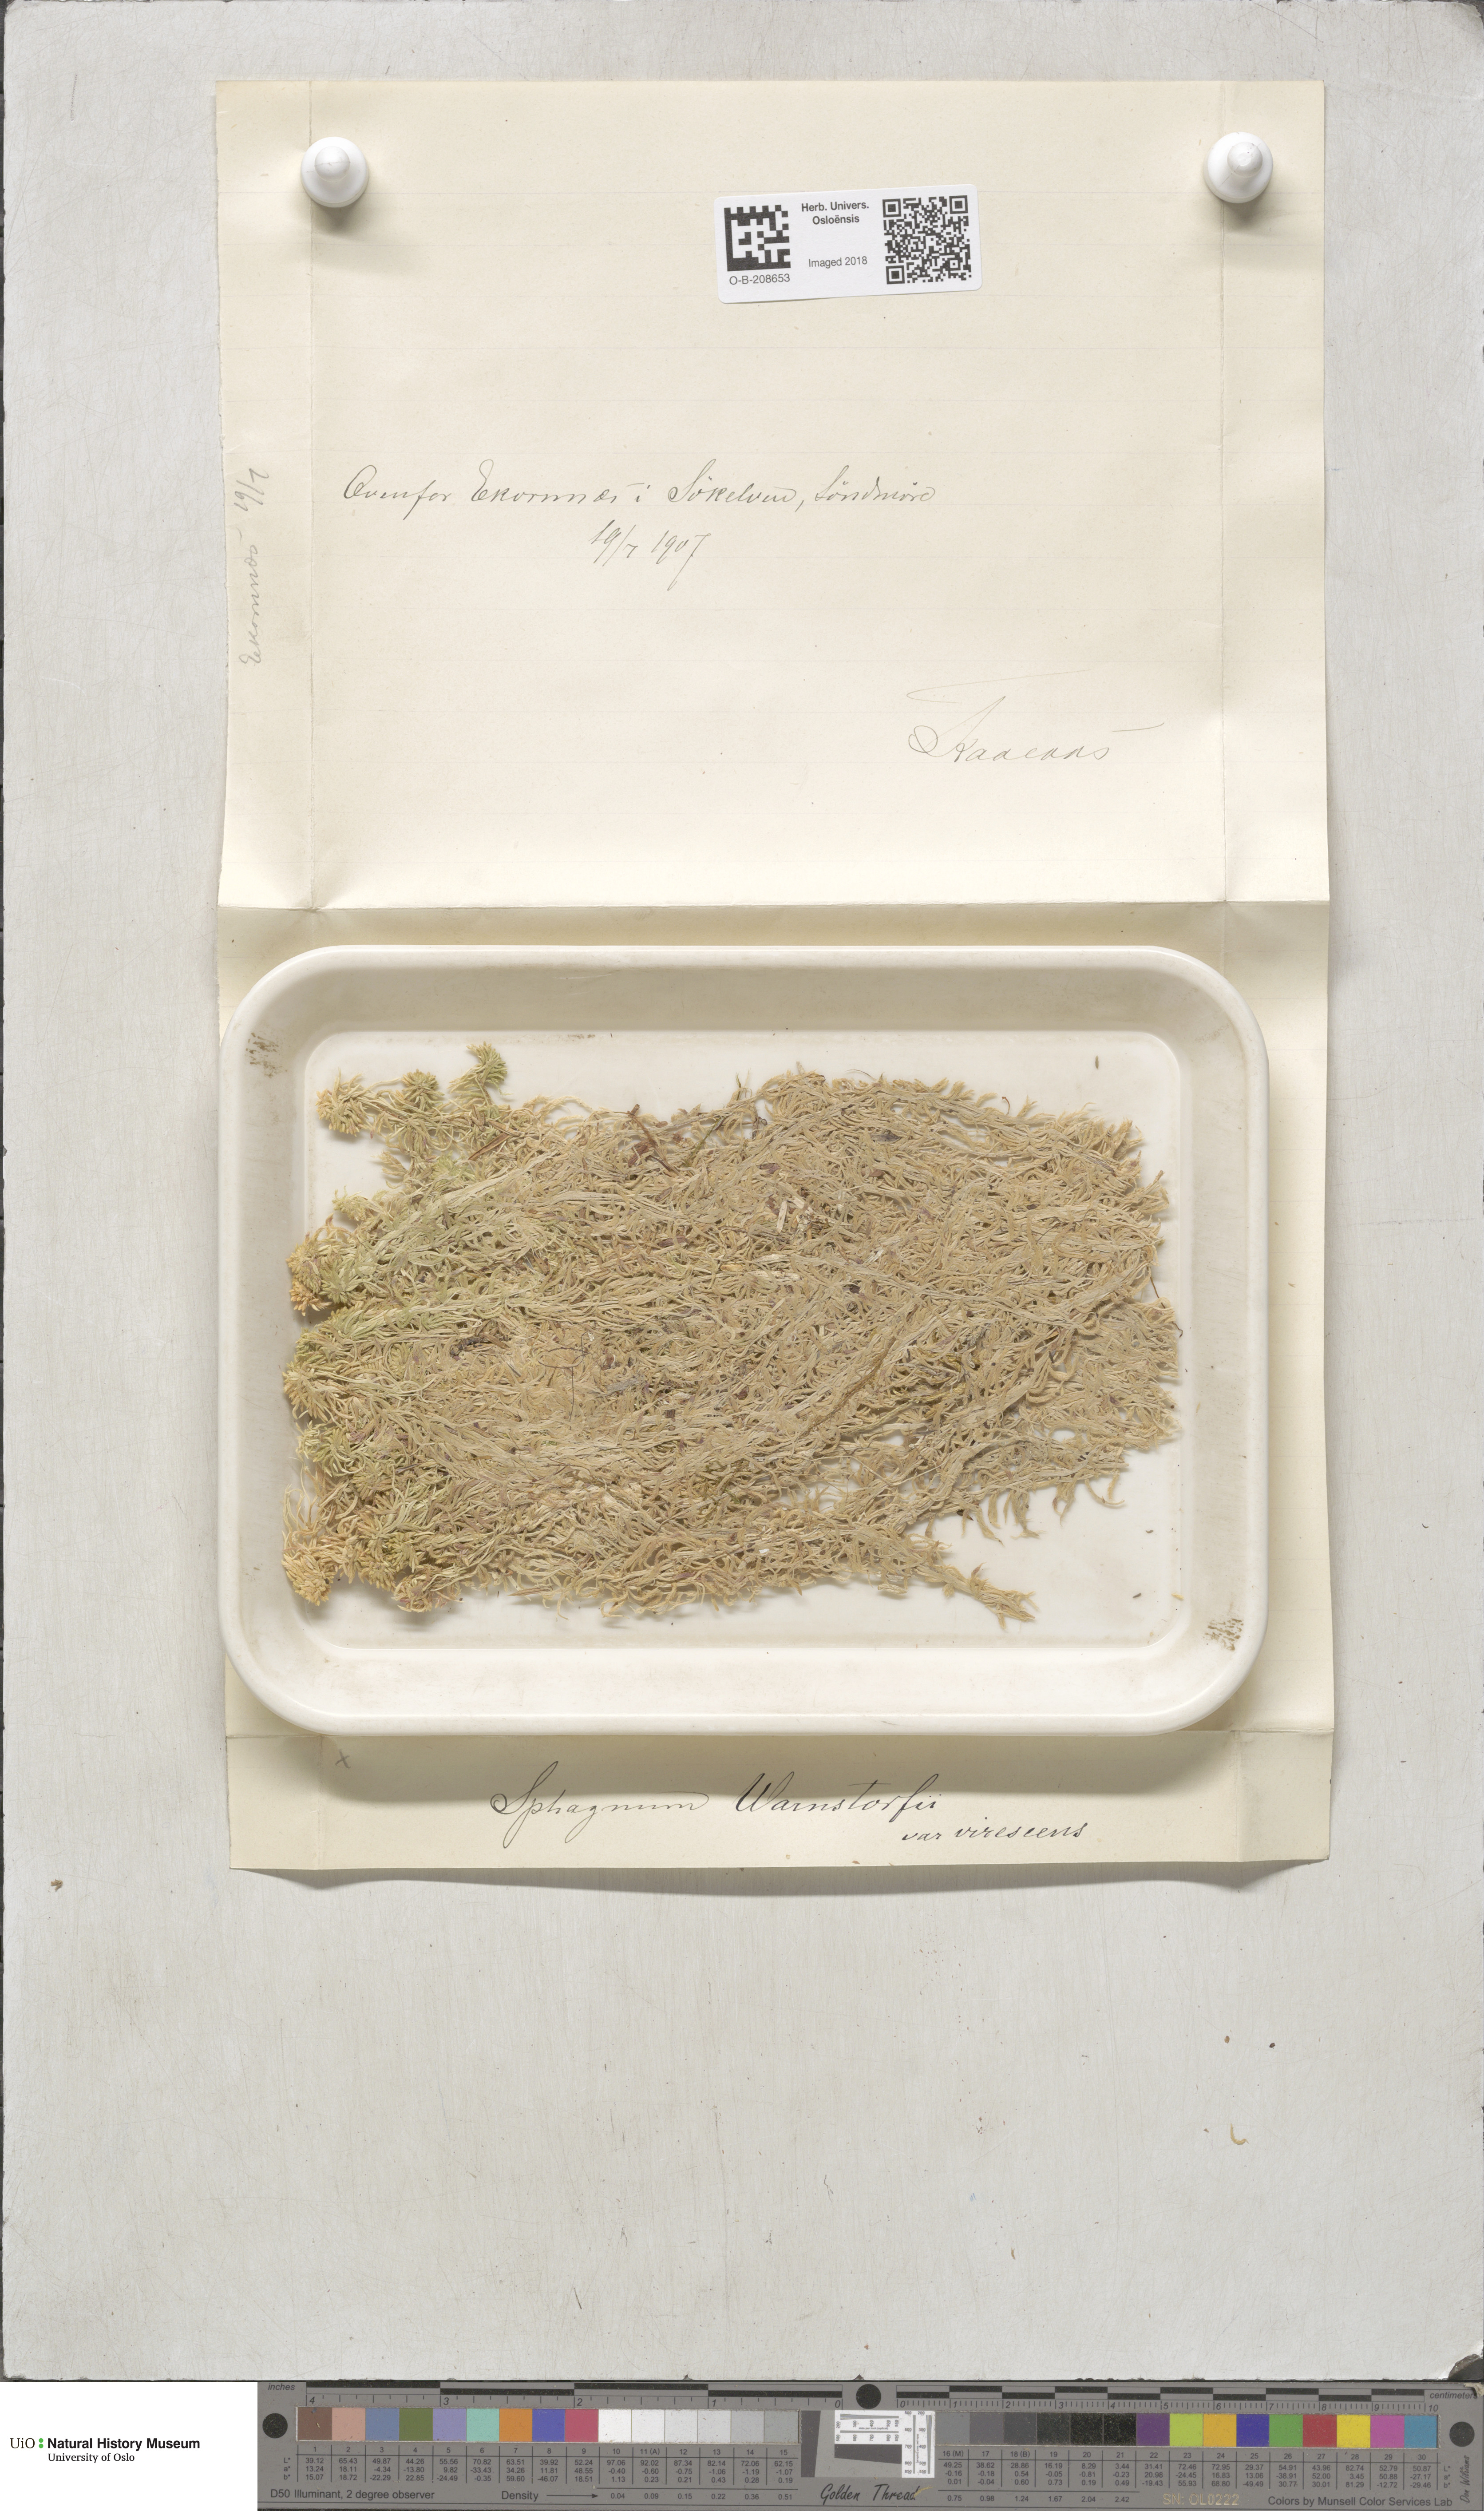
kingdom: Plantae
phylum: Bryophyta
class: Sphagnopsida
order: Sphagnales
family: Sphagnaceae
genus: Sphagnum
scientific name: Sphagnum warnstorfii
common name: Warnstorf's peat moss
